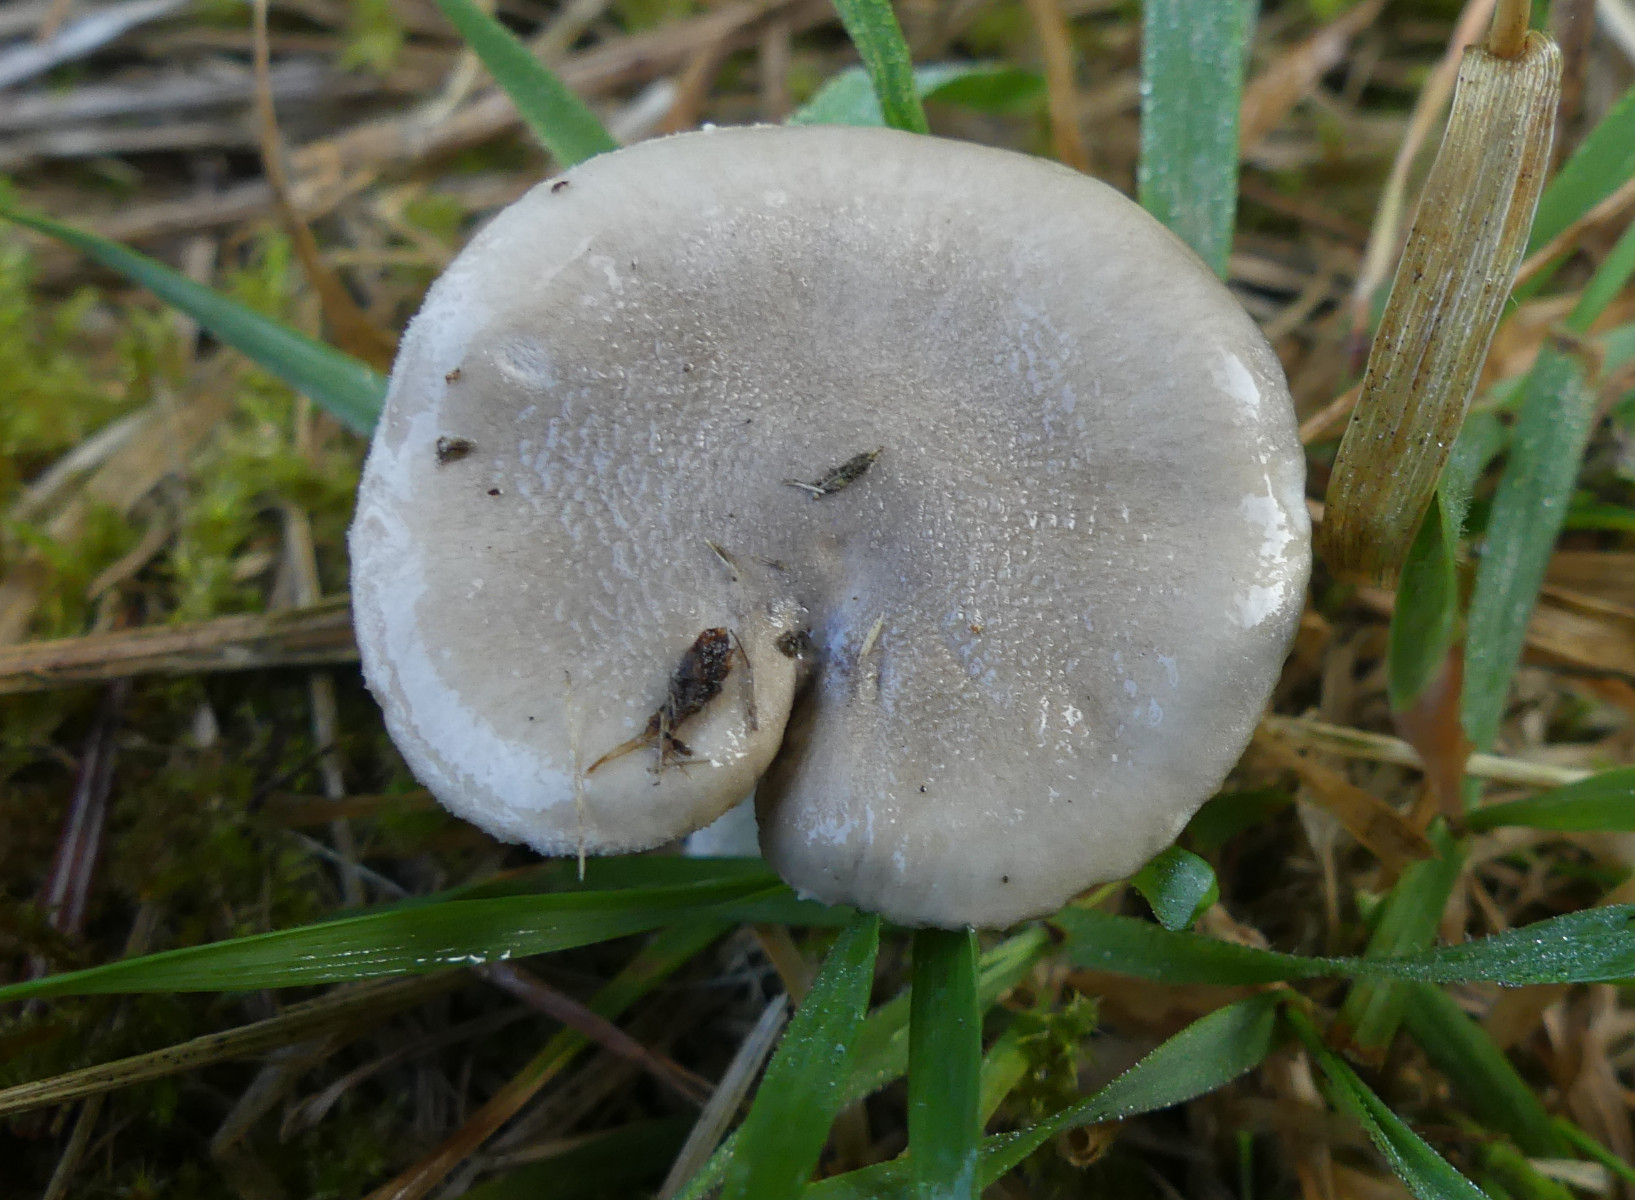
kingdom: Fungi
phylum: Basidiomycota
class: Agaricomycetes
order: Agaricales
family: Hygrophoraceae
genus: Hygrophorus
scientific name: Hygrophorus agathosmus
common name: vellugtende sneglehat
